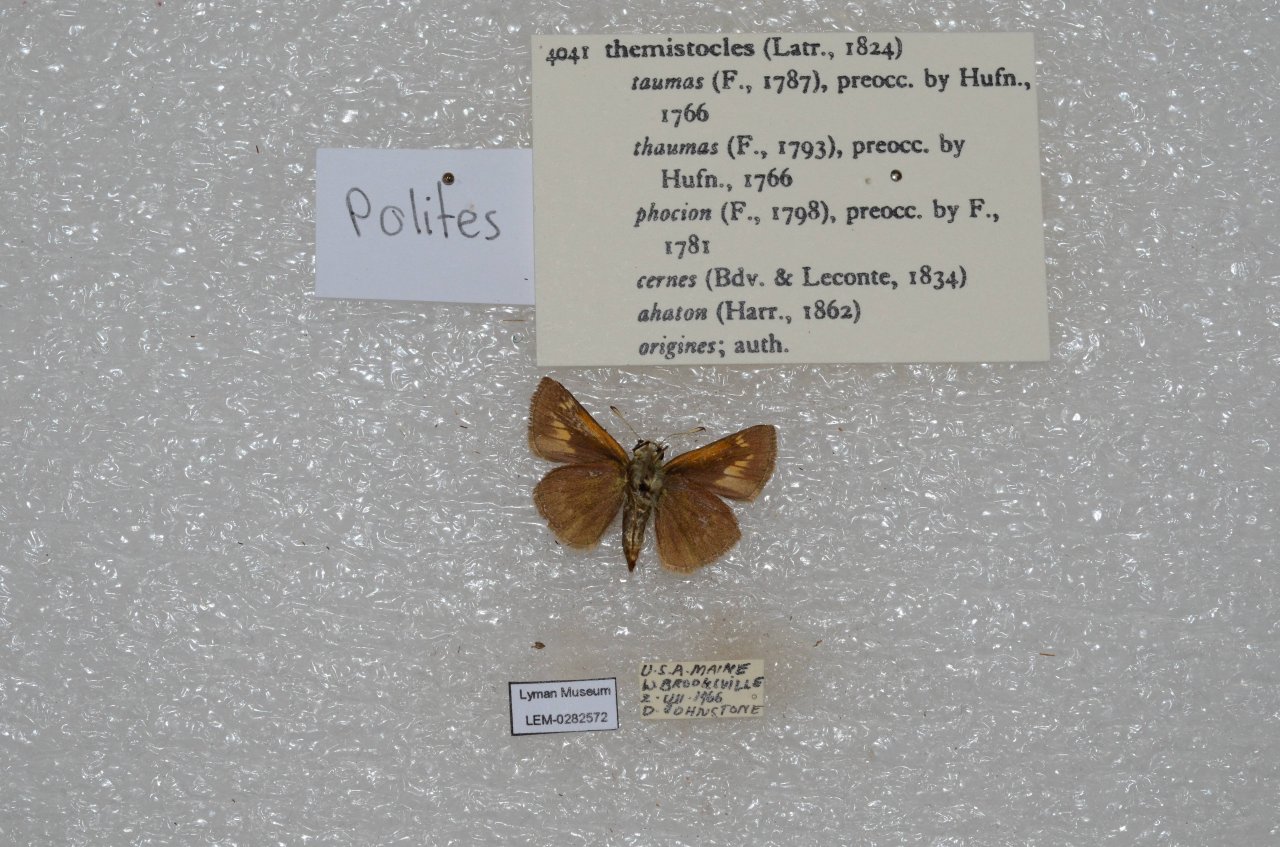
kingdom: Animalia
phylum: Arthropoda
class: Insecta
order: Lepidoptera
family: Hesperiidae
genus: Polites
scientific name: Polites themistocles
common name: Tawny-edged Skipper
